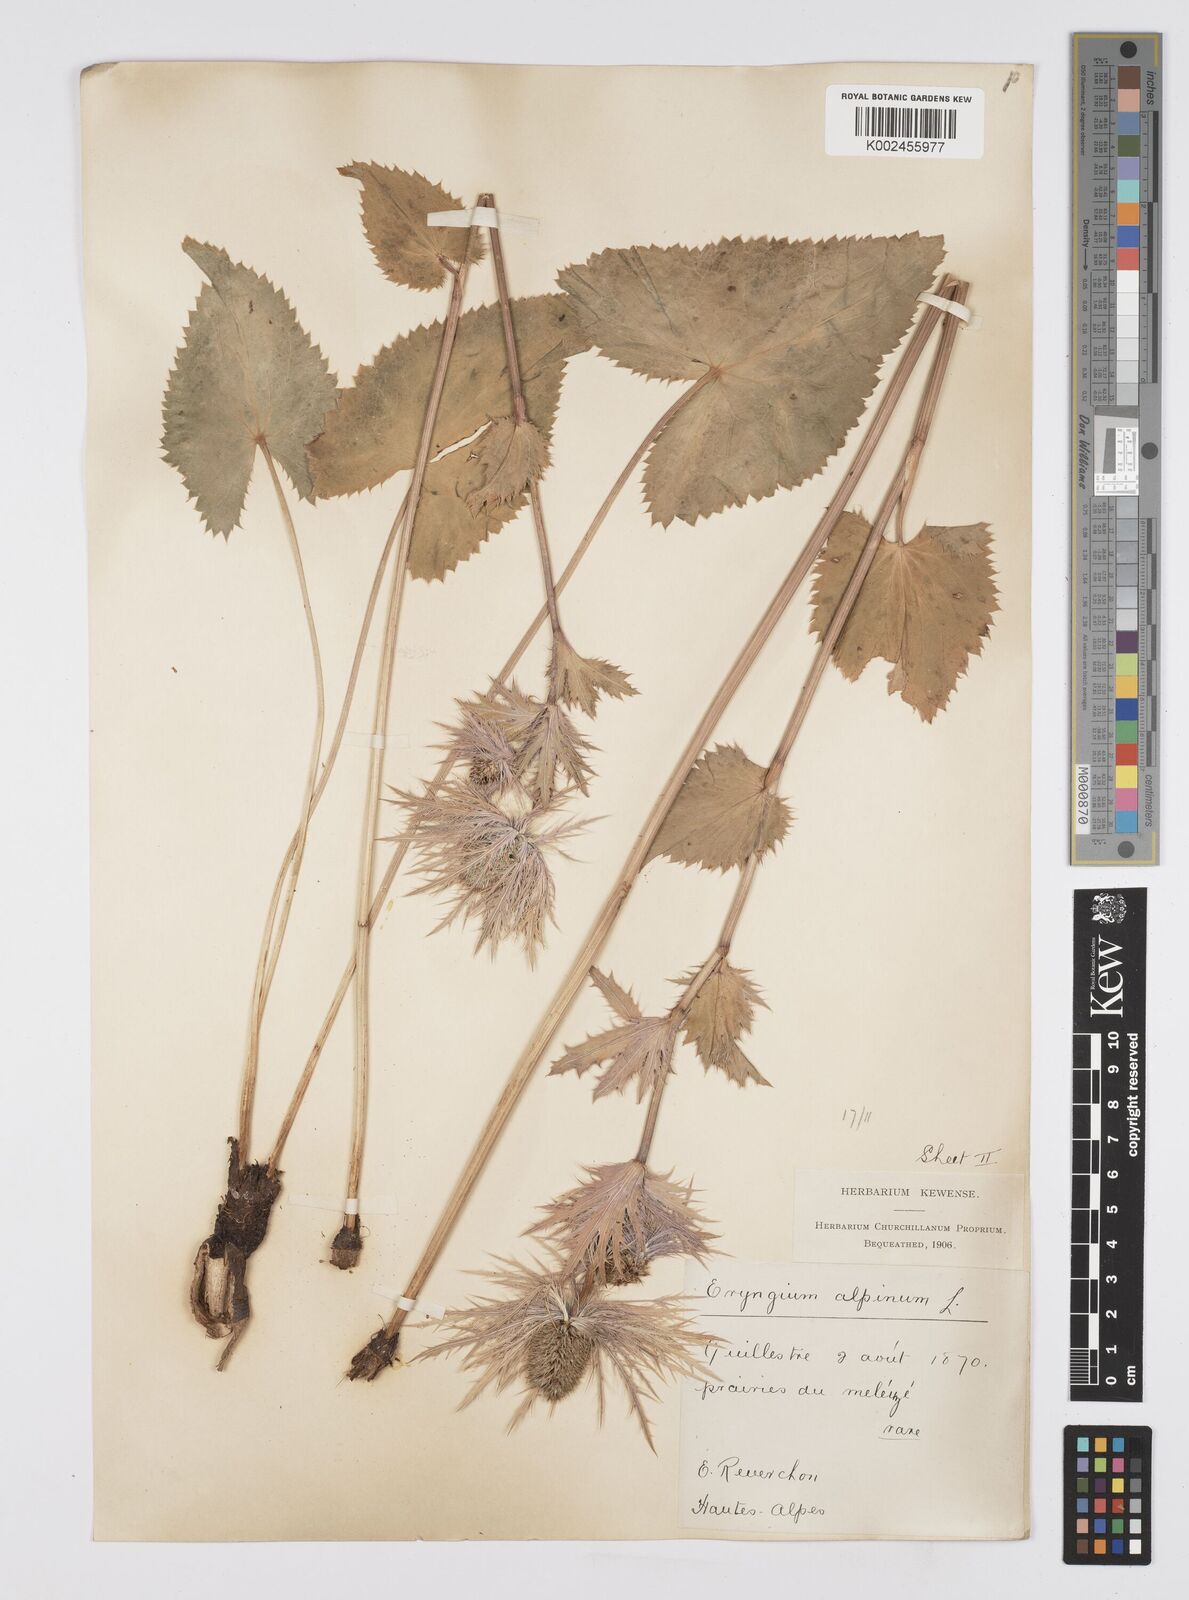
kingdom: Plantae
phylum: Tracheophyta
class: Magnoliopsida
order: Apiales
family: Apiaceae
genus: Eryngium
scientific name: Eryngium alpinum
